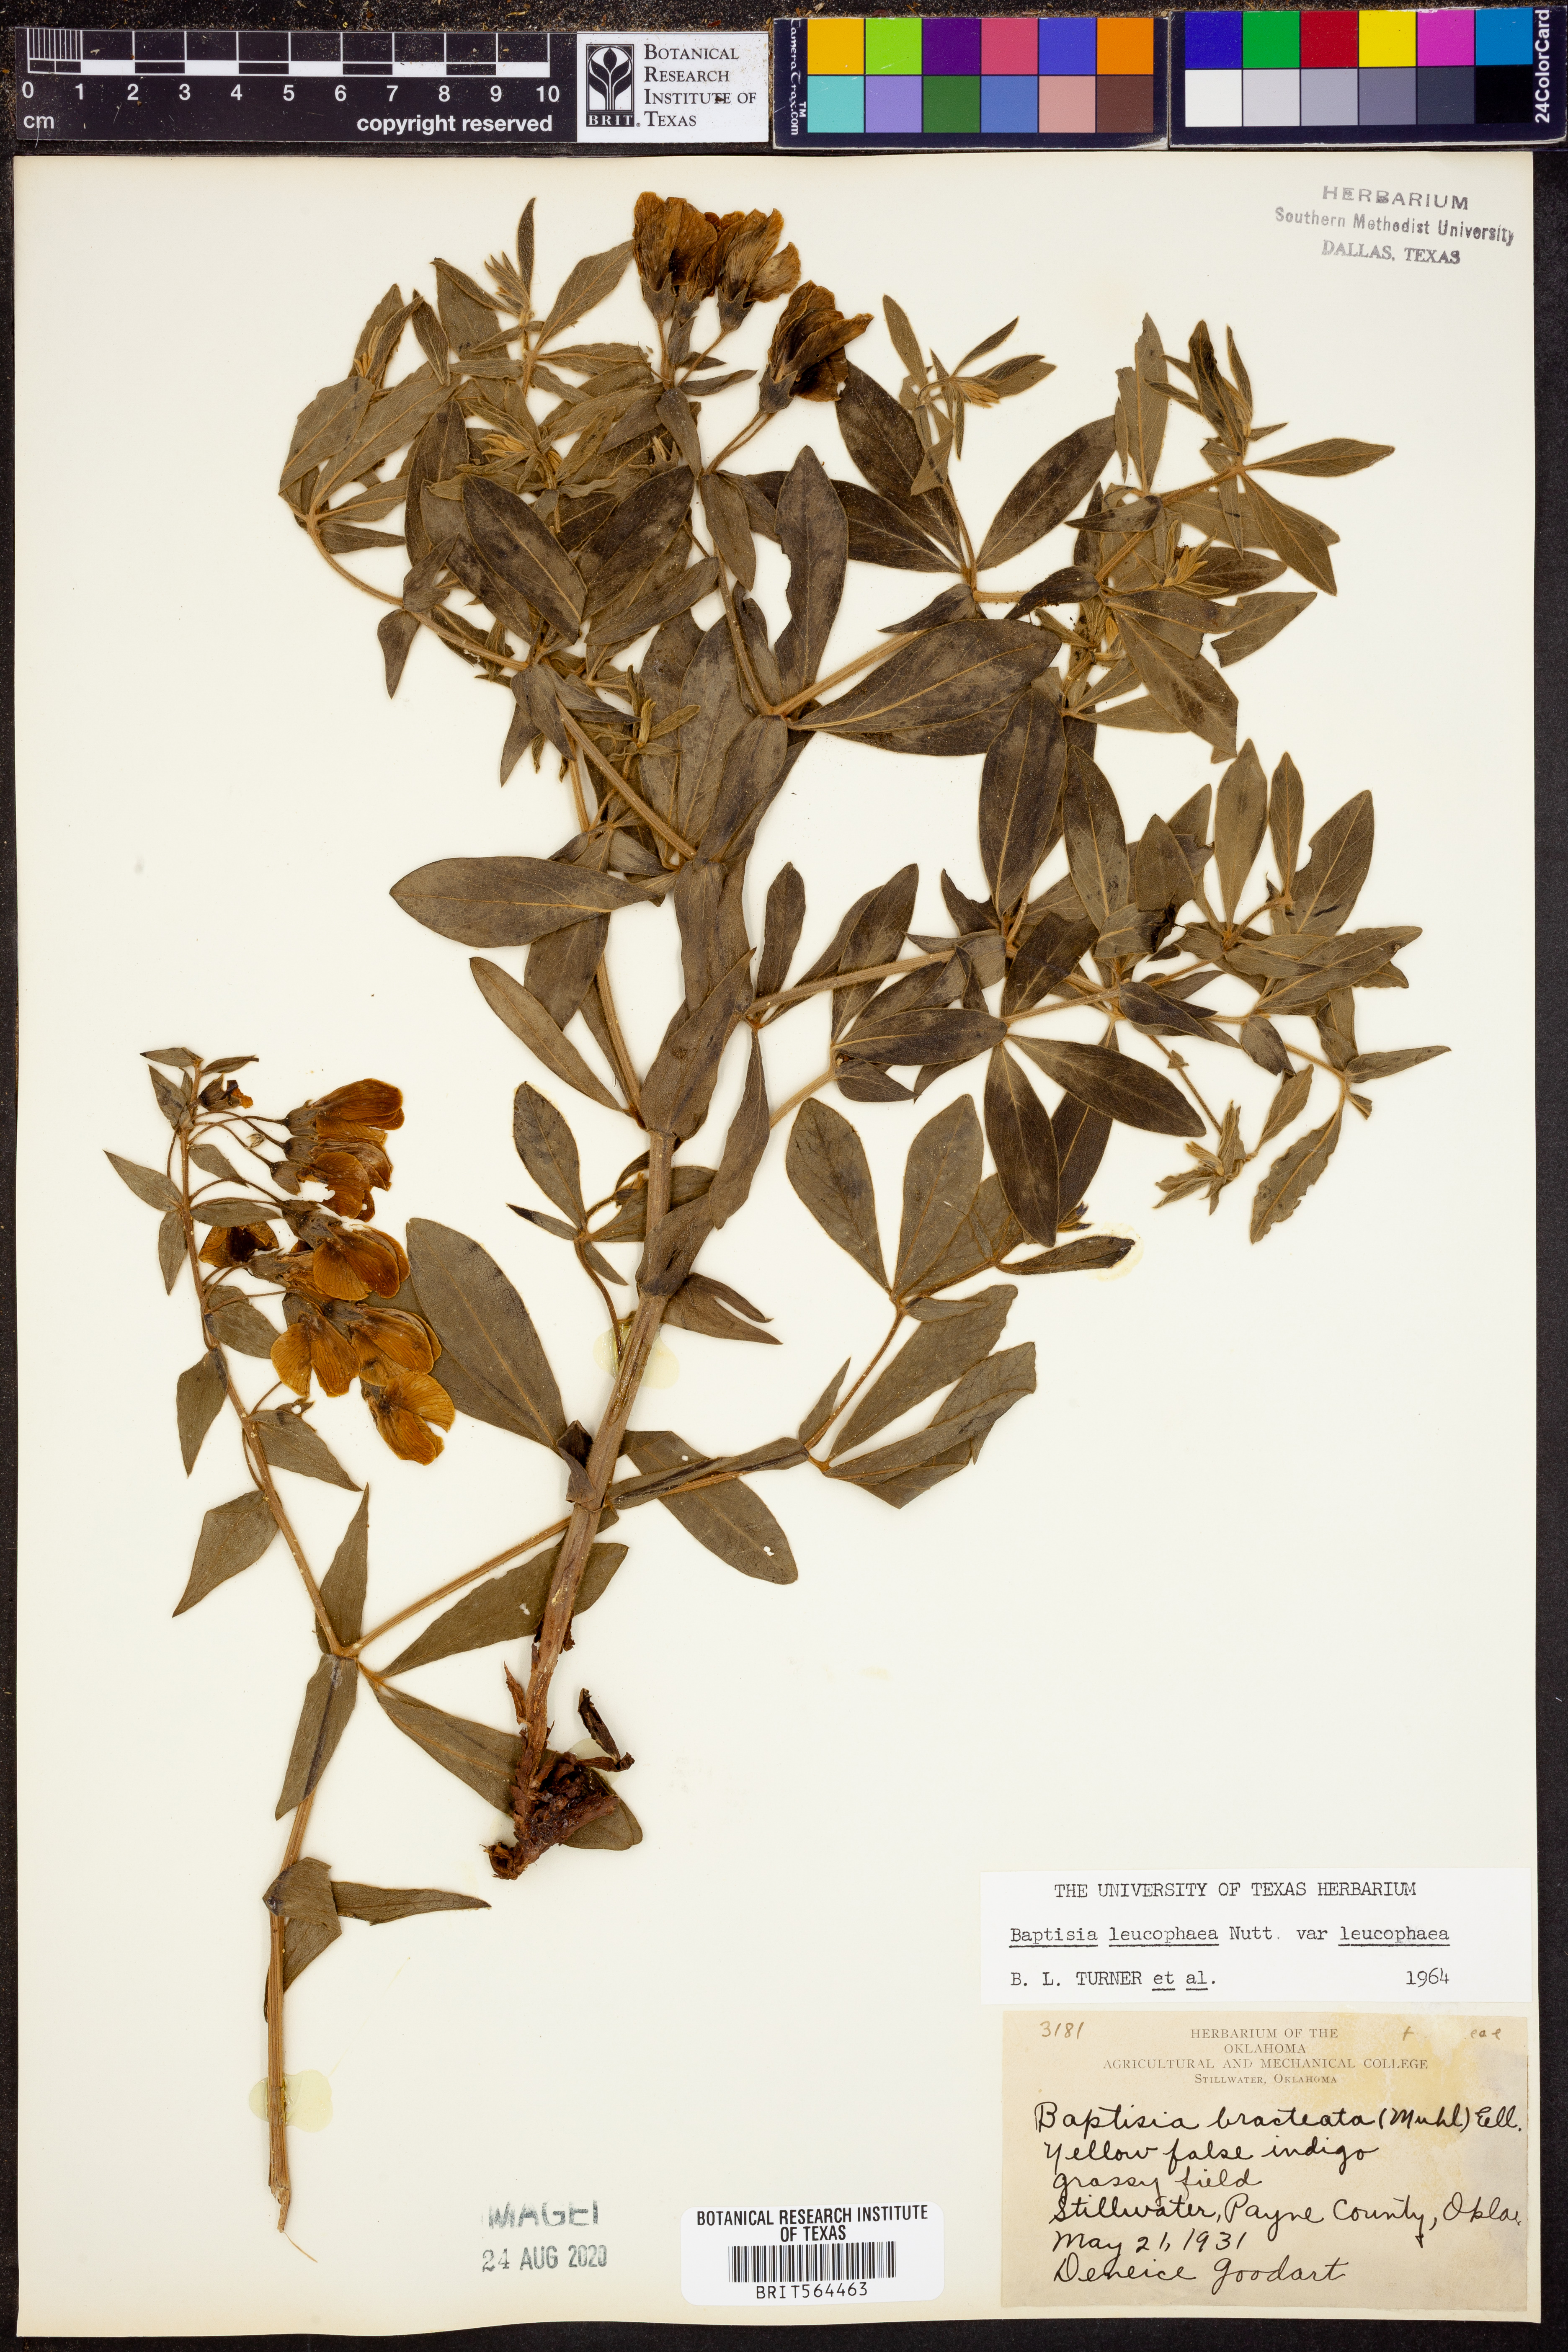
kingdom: Plantae
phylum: Tracheophyta
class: Magnoliopsida
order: Fabales
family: Fabaceae
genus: Baptisia
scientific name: Baptisia bracteata
